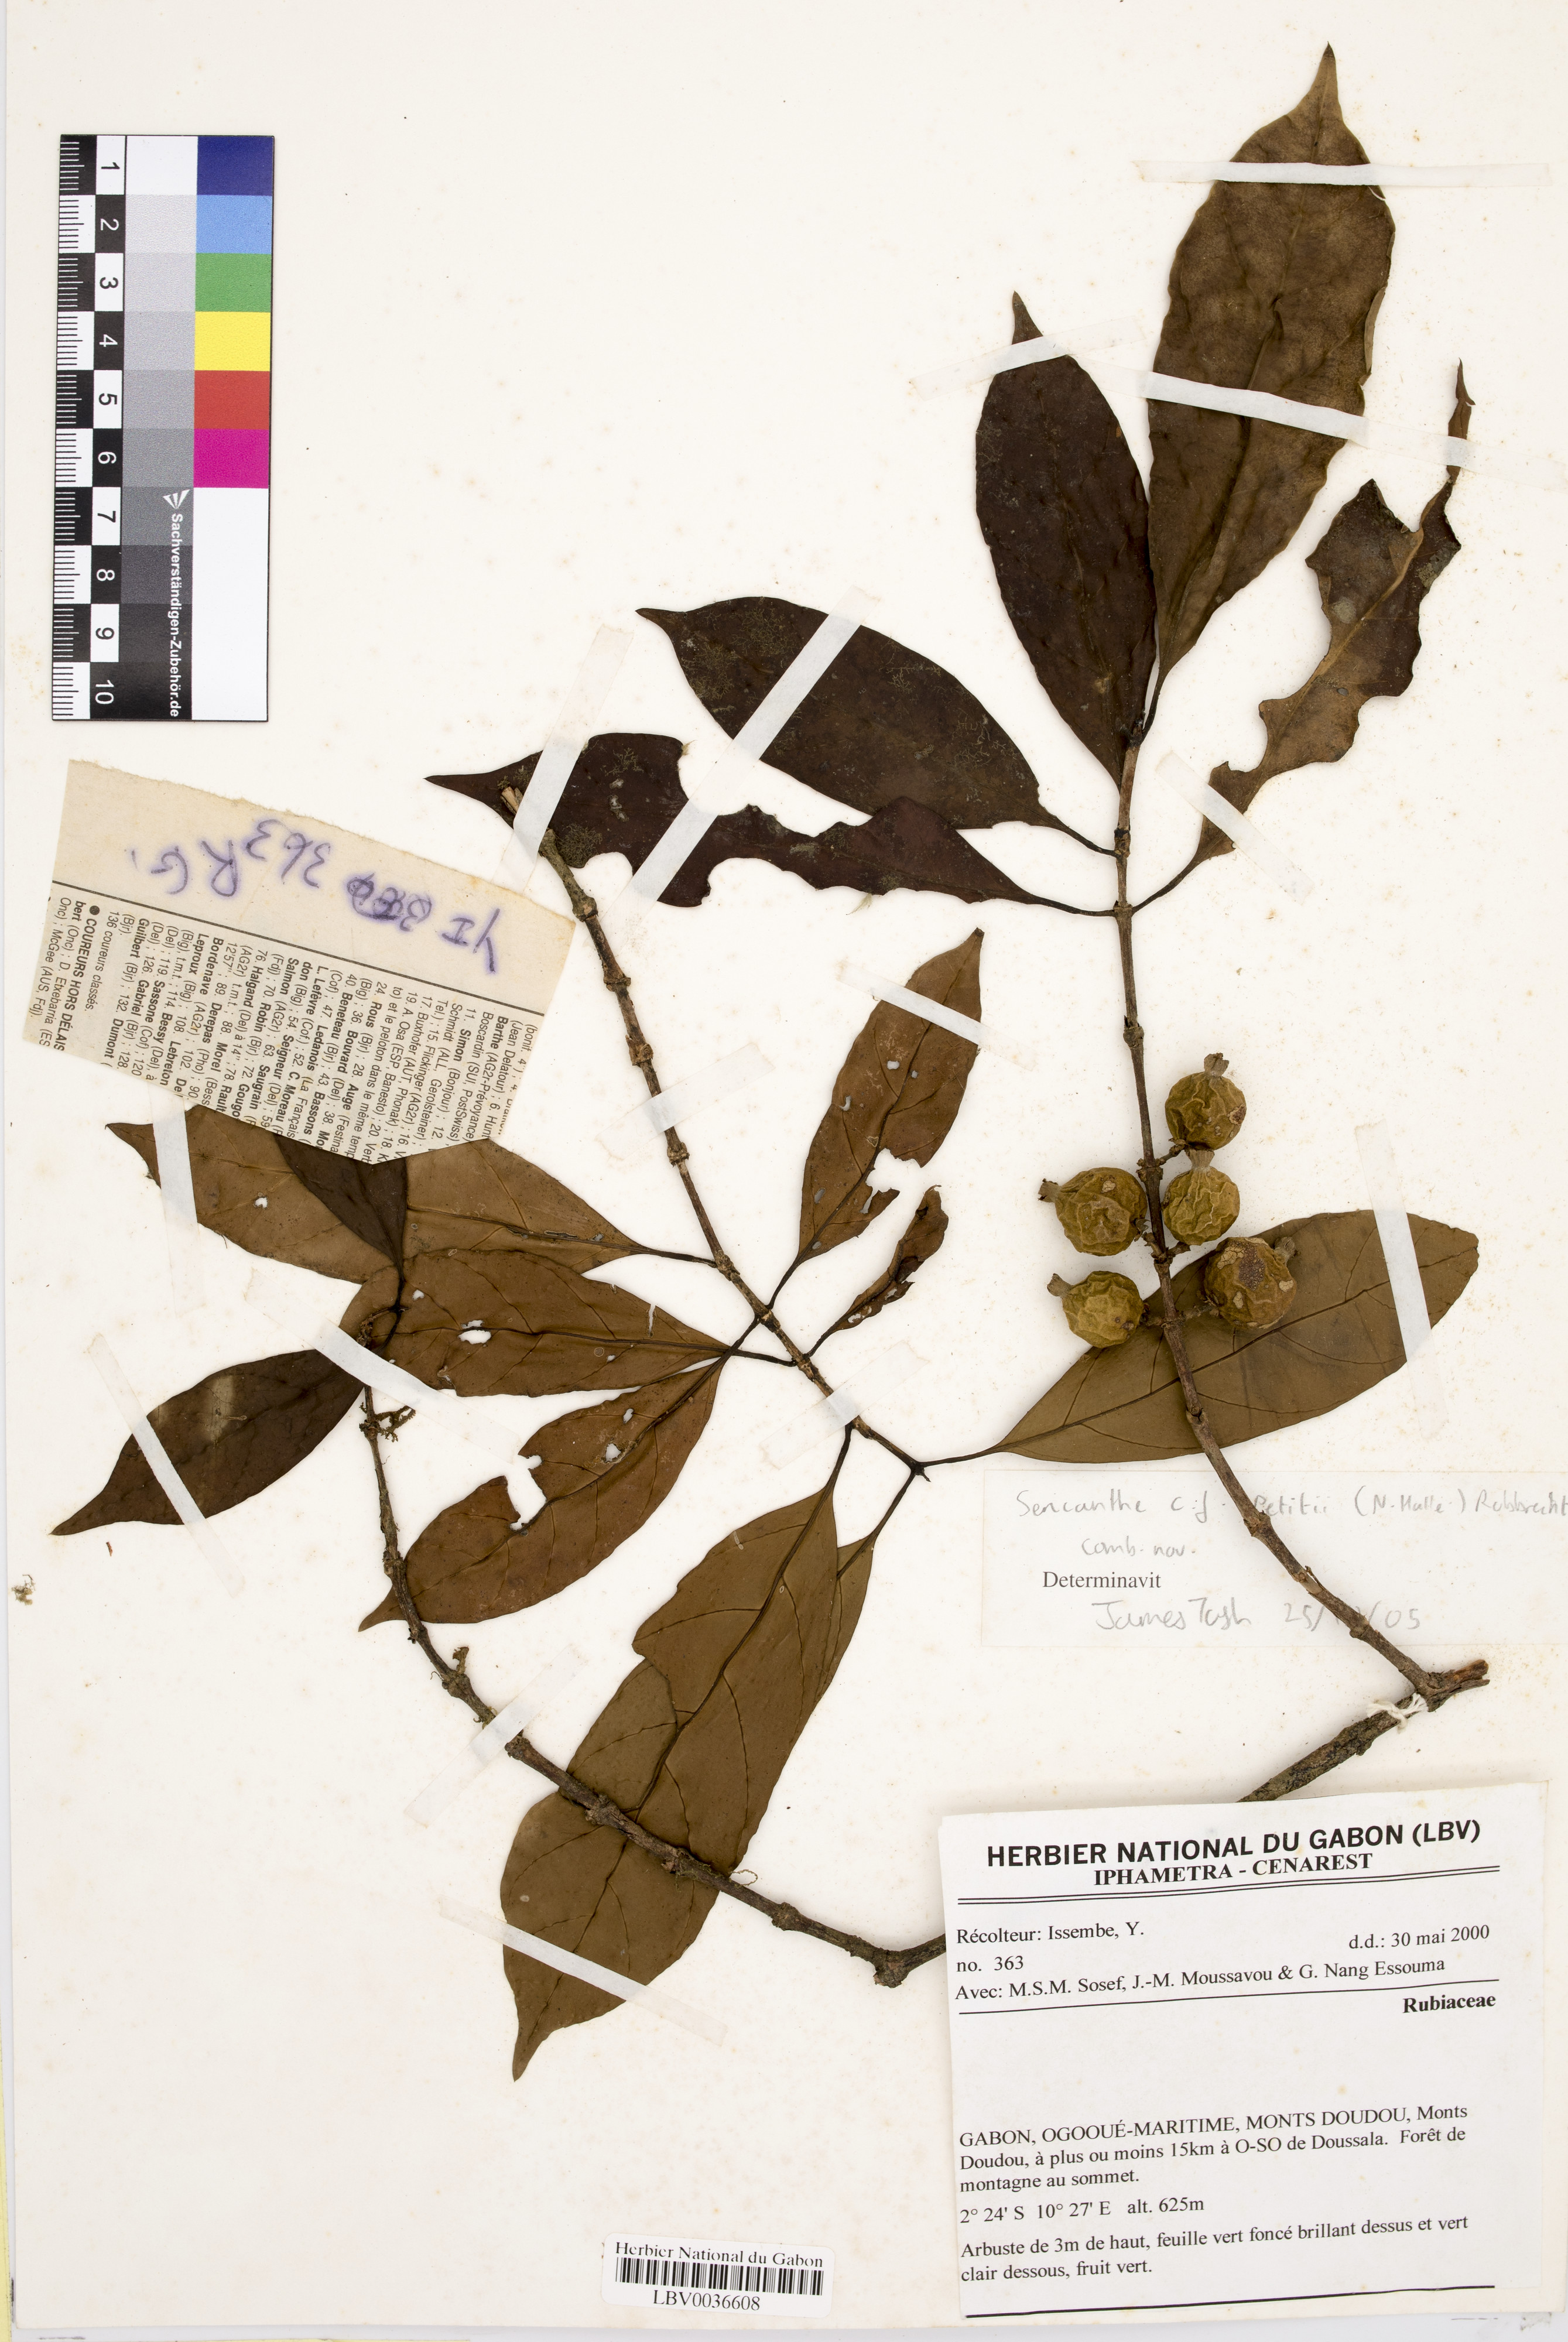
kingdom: Plantae
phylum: Tracheophyta
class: Magnoliopsida
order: Gentianales
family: Rubiaceae
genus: Sericanthe
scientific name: Sericanthe petitii
